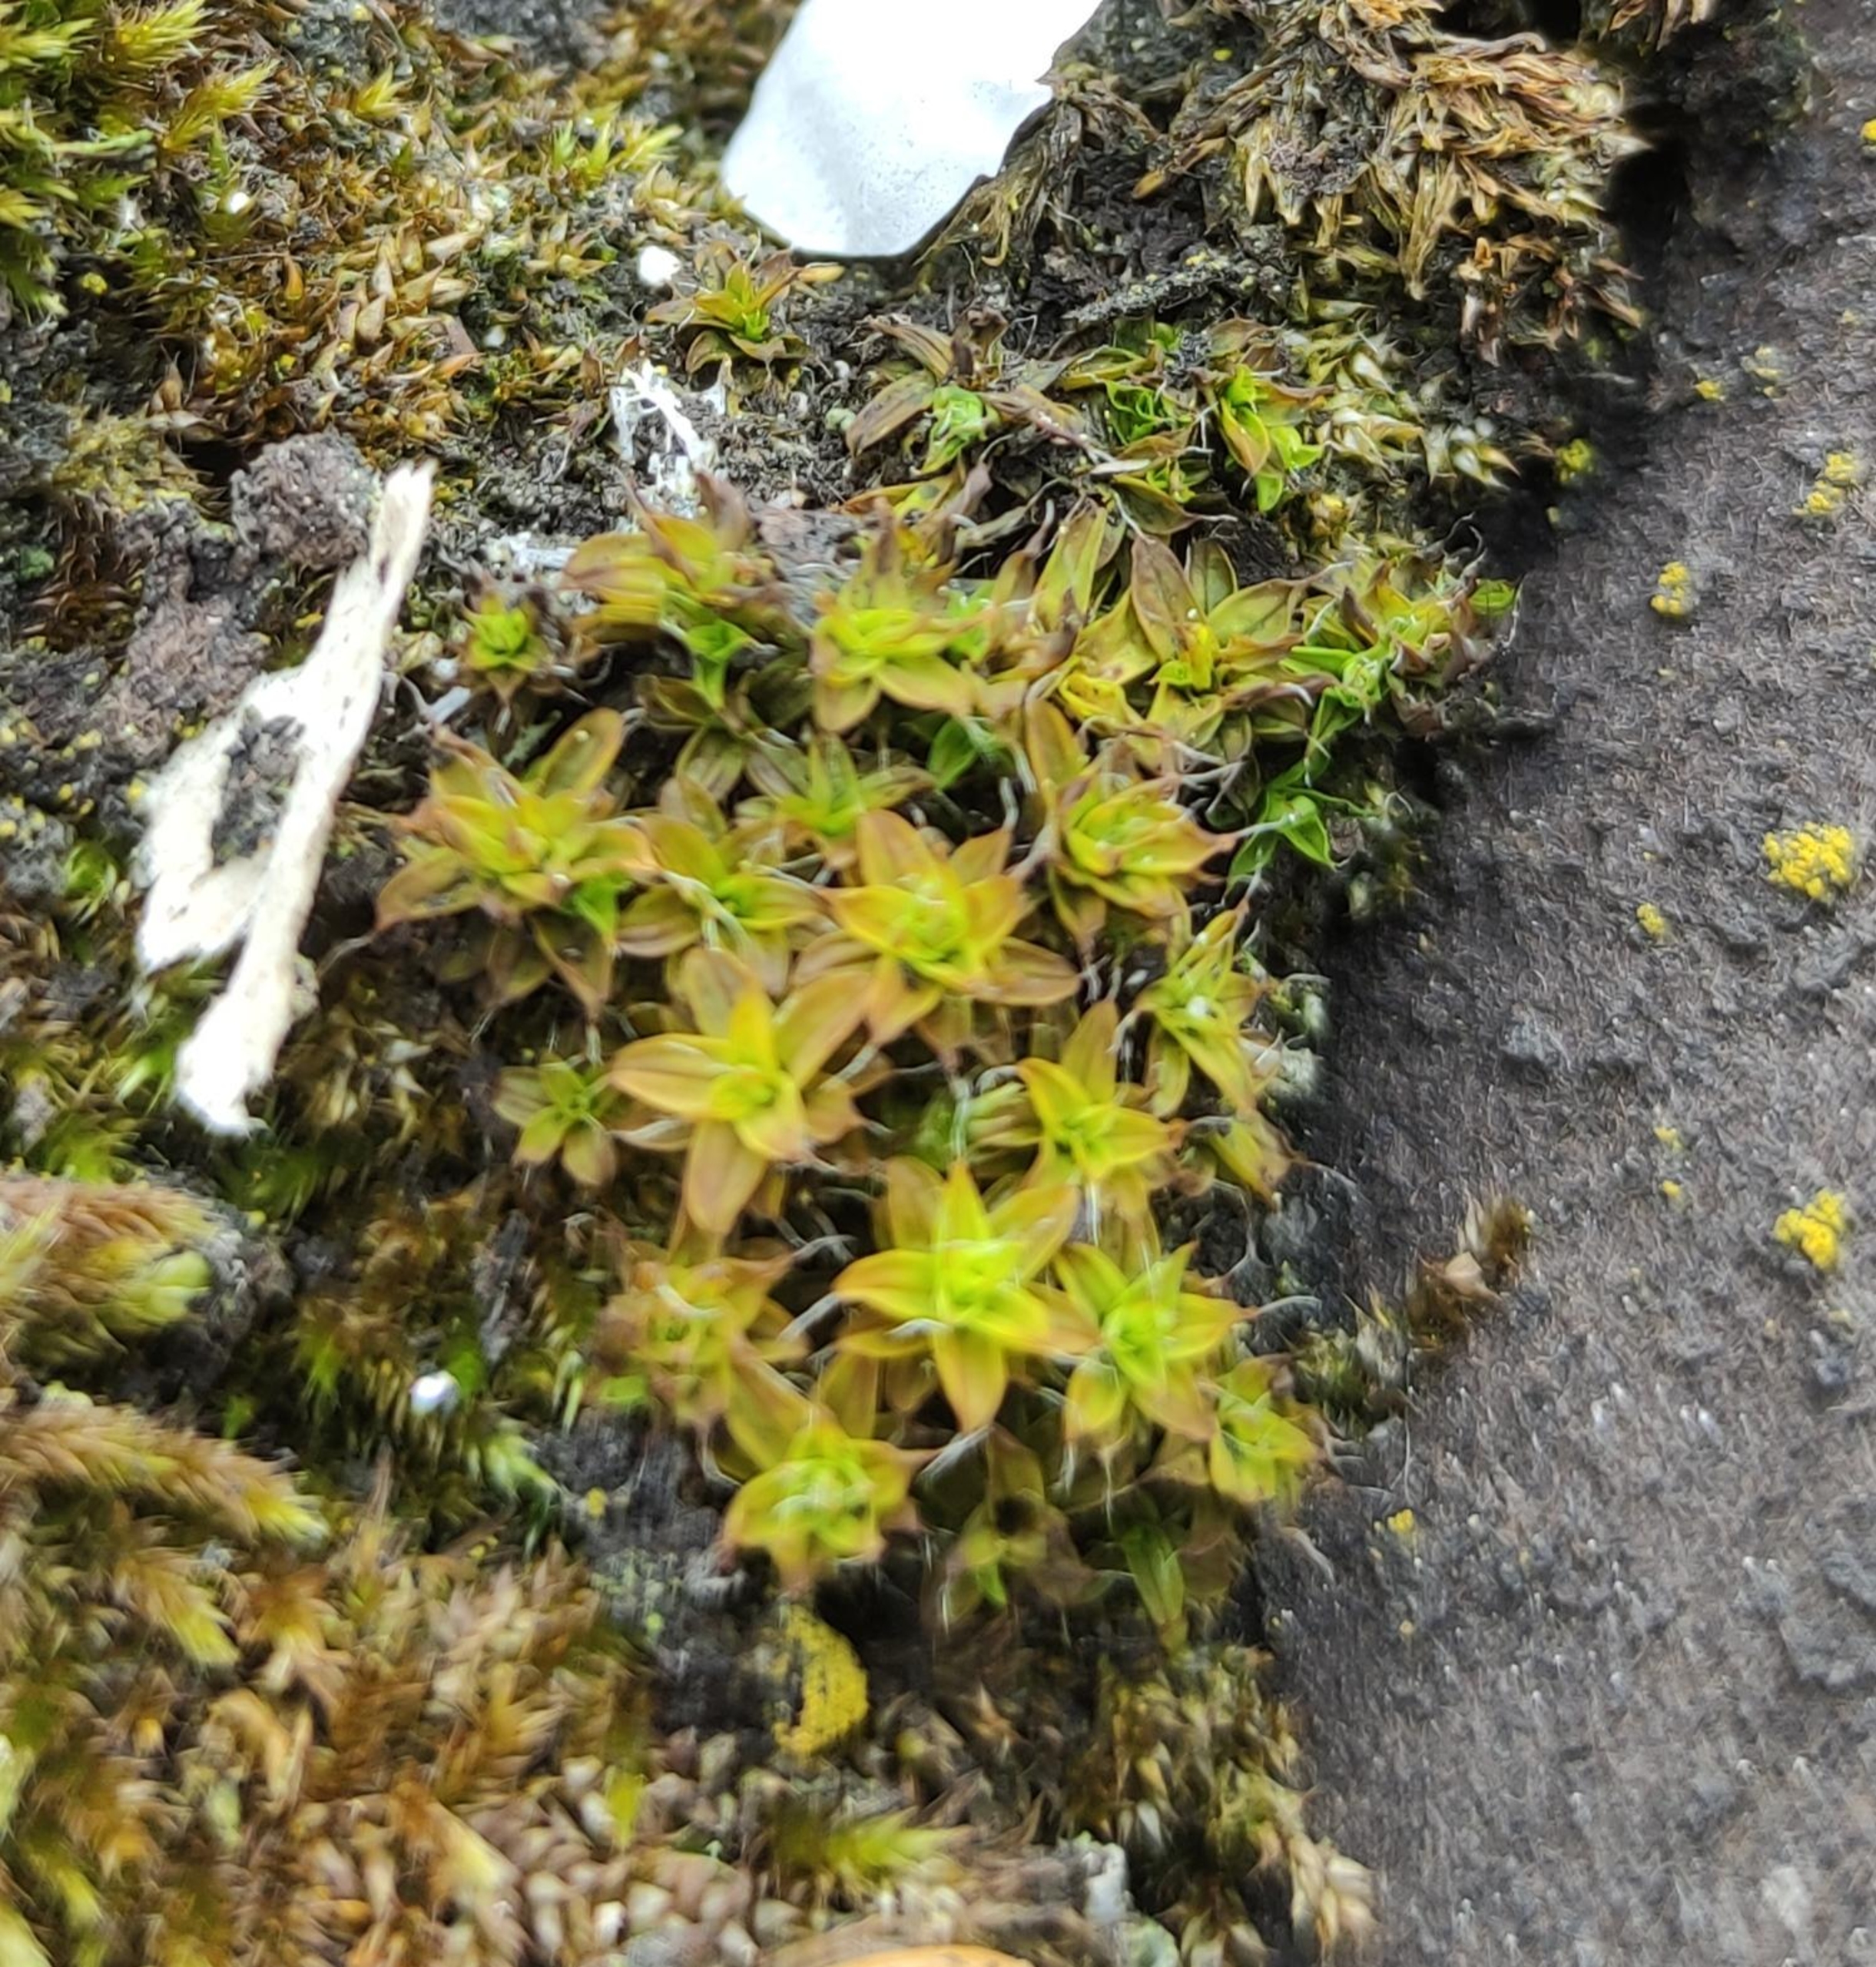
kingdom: Plantae
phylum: Bryophyta
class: Bryopsida
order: Pottiales
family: Pottiaceae
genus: Syntrichia
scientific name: Syntrichia ruralis
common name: Tag-hårstjerne
